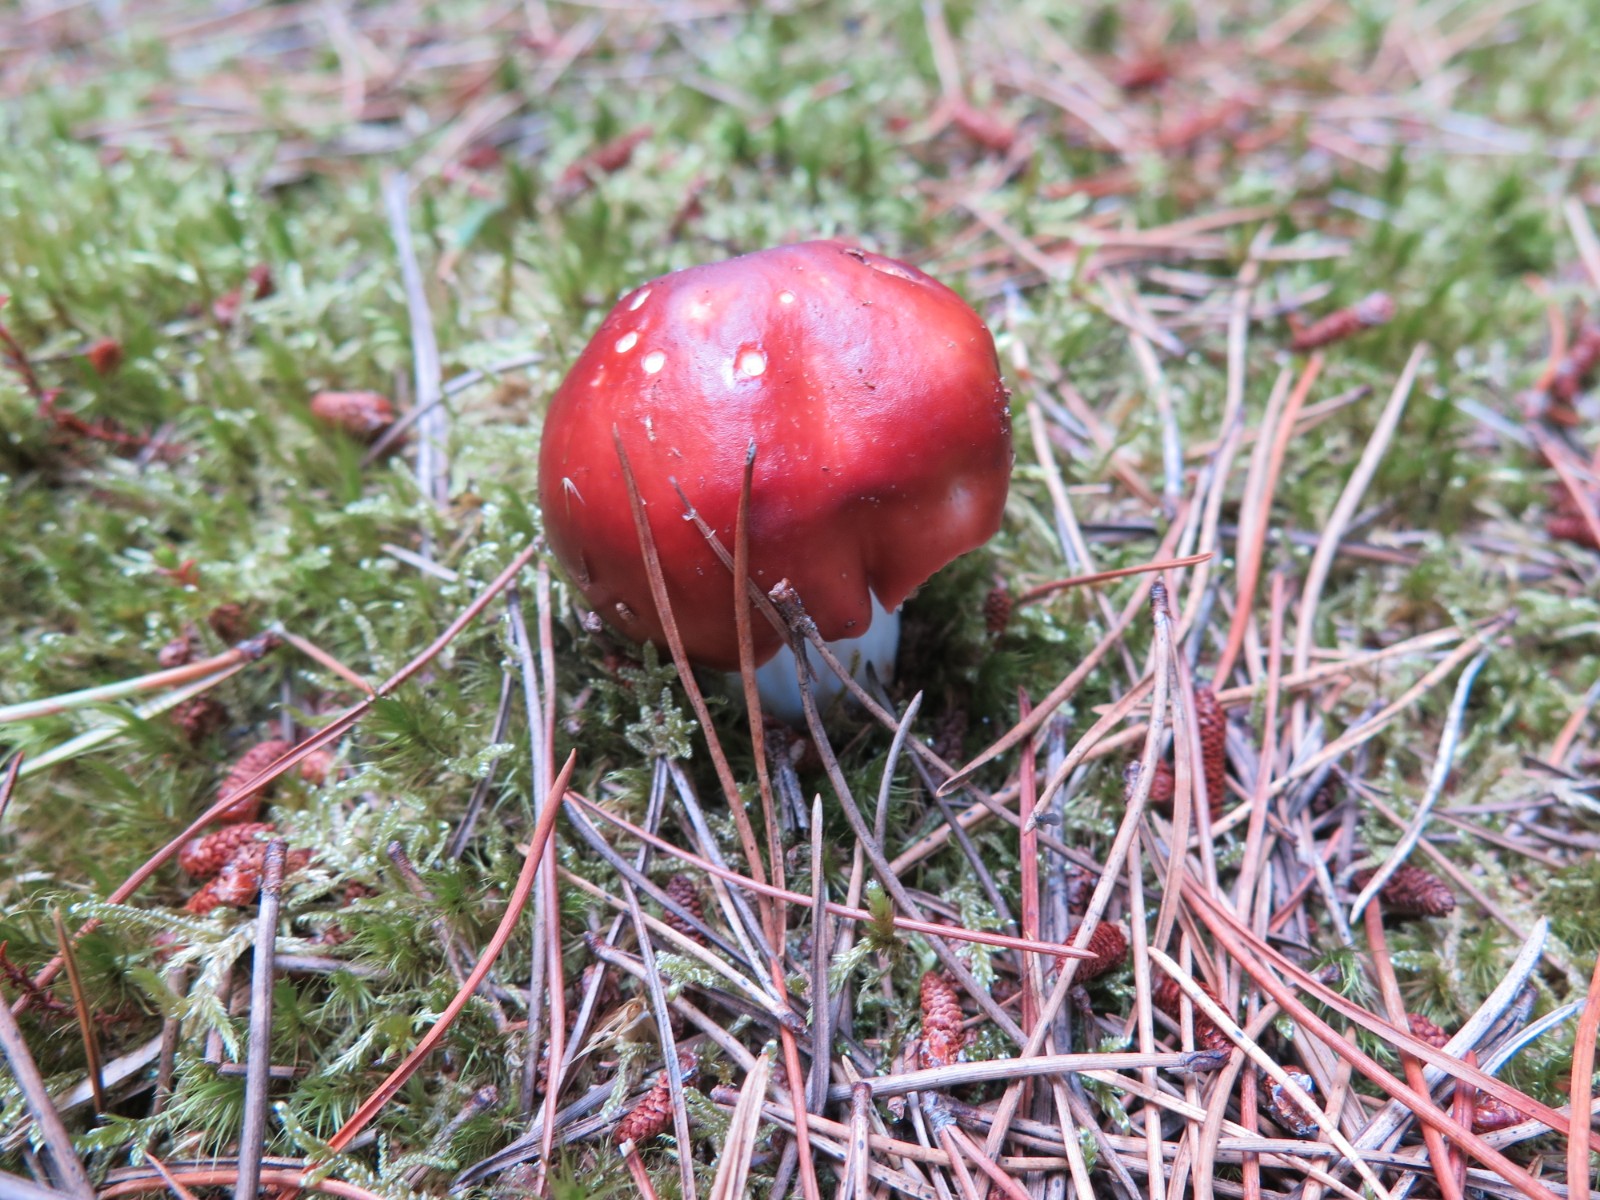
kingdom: Fungi
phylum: Basidiomycota
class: Agaricomycetes
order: Russulales
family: Russulaceae
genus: Russula
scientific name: Russula paludosa
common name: prægtig skørhat
